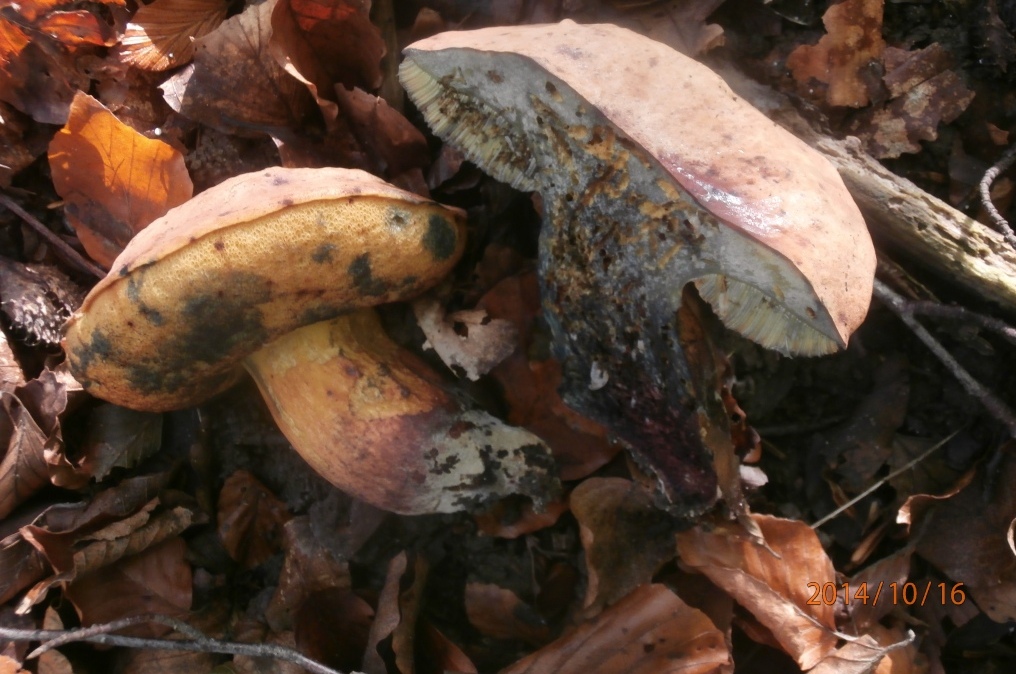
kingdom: Fungi
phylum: Basidiomycota
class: Agaricomycetes
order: Boletales
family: Boletaceae
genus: Suillellus
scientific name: Suillellus queletii
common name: glatstokket indigorørhat
